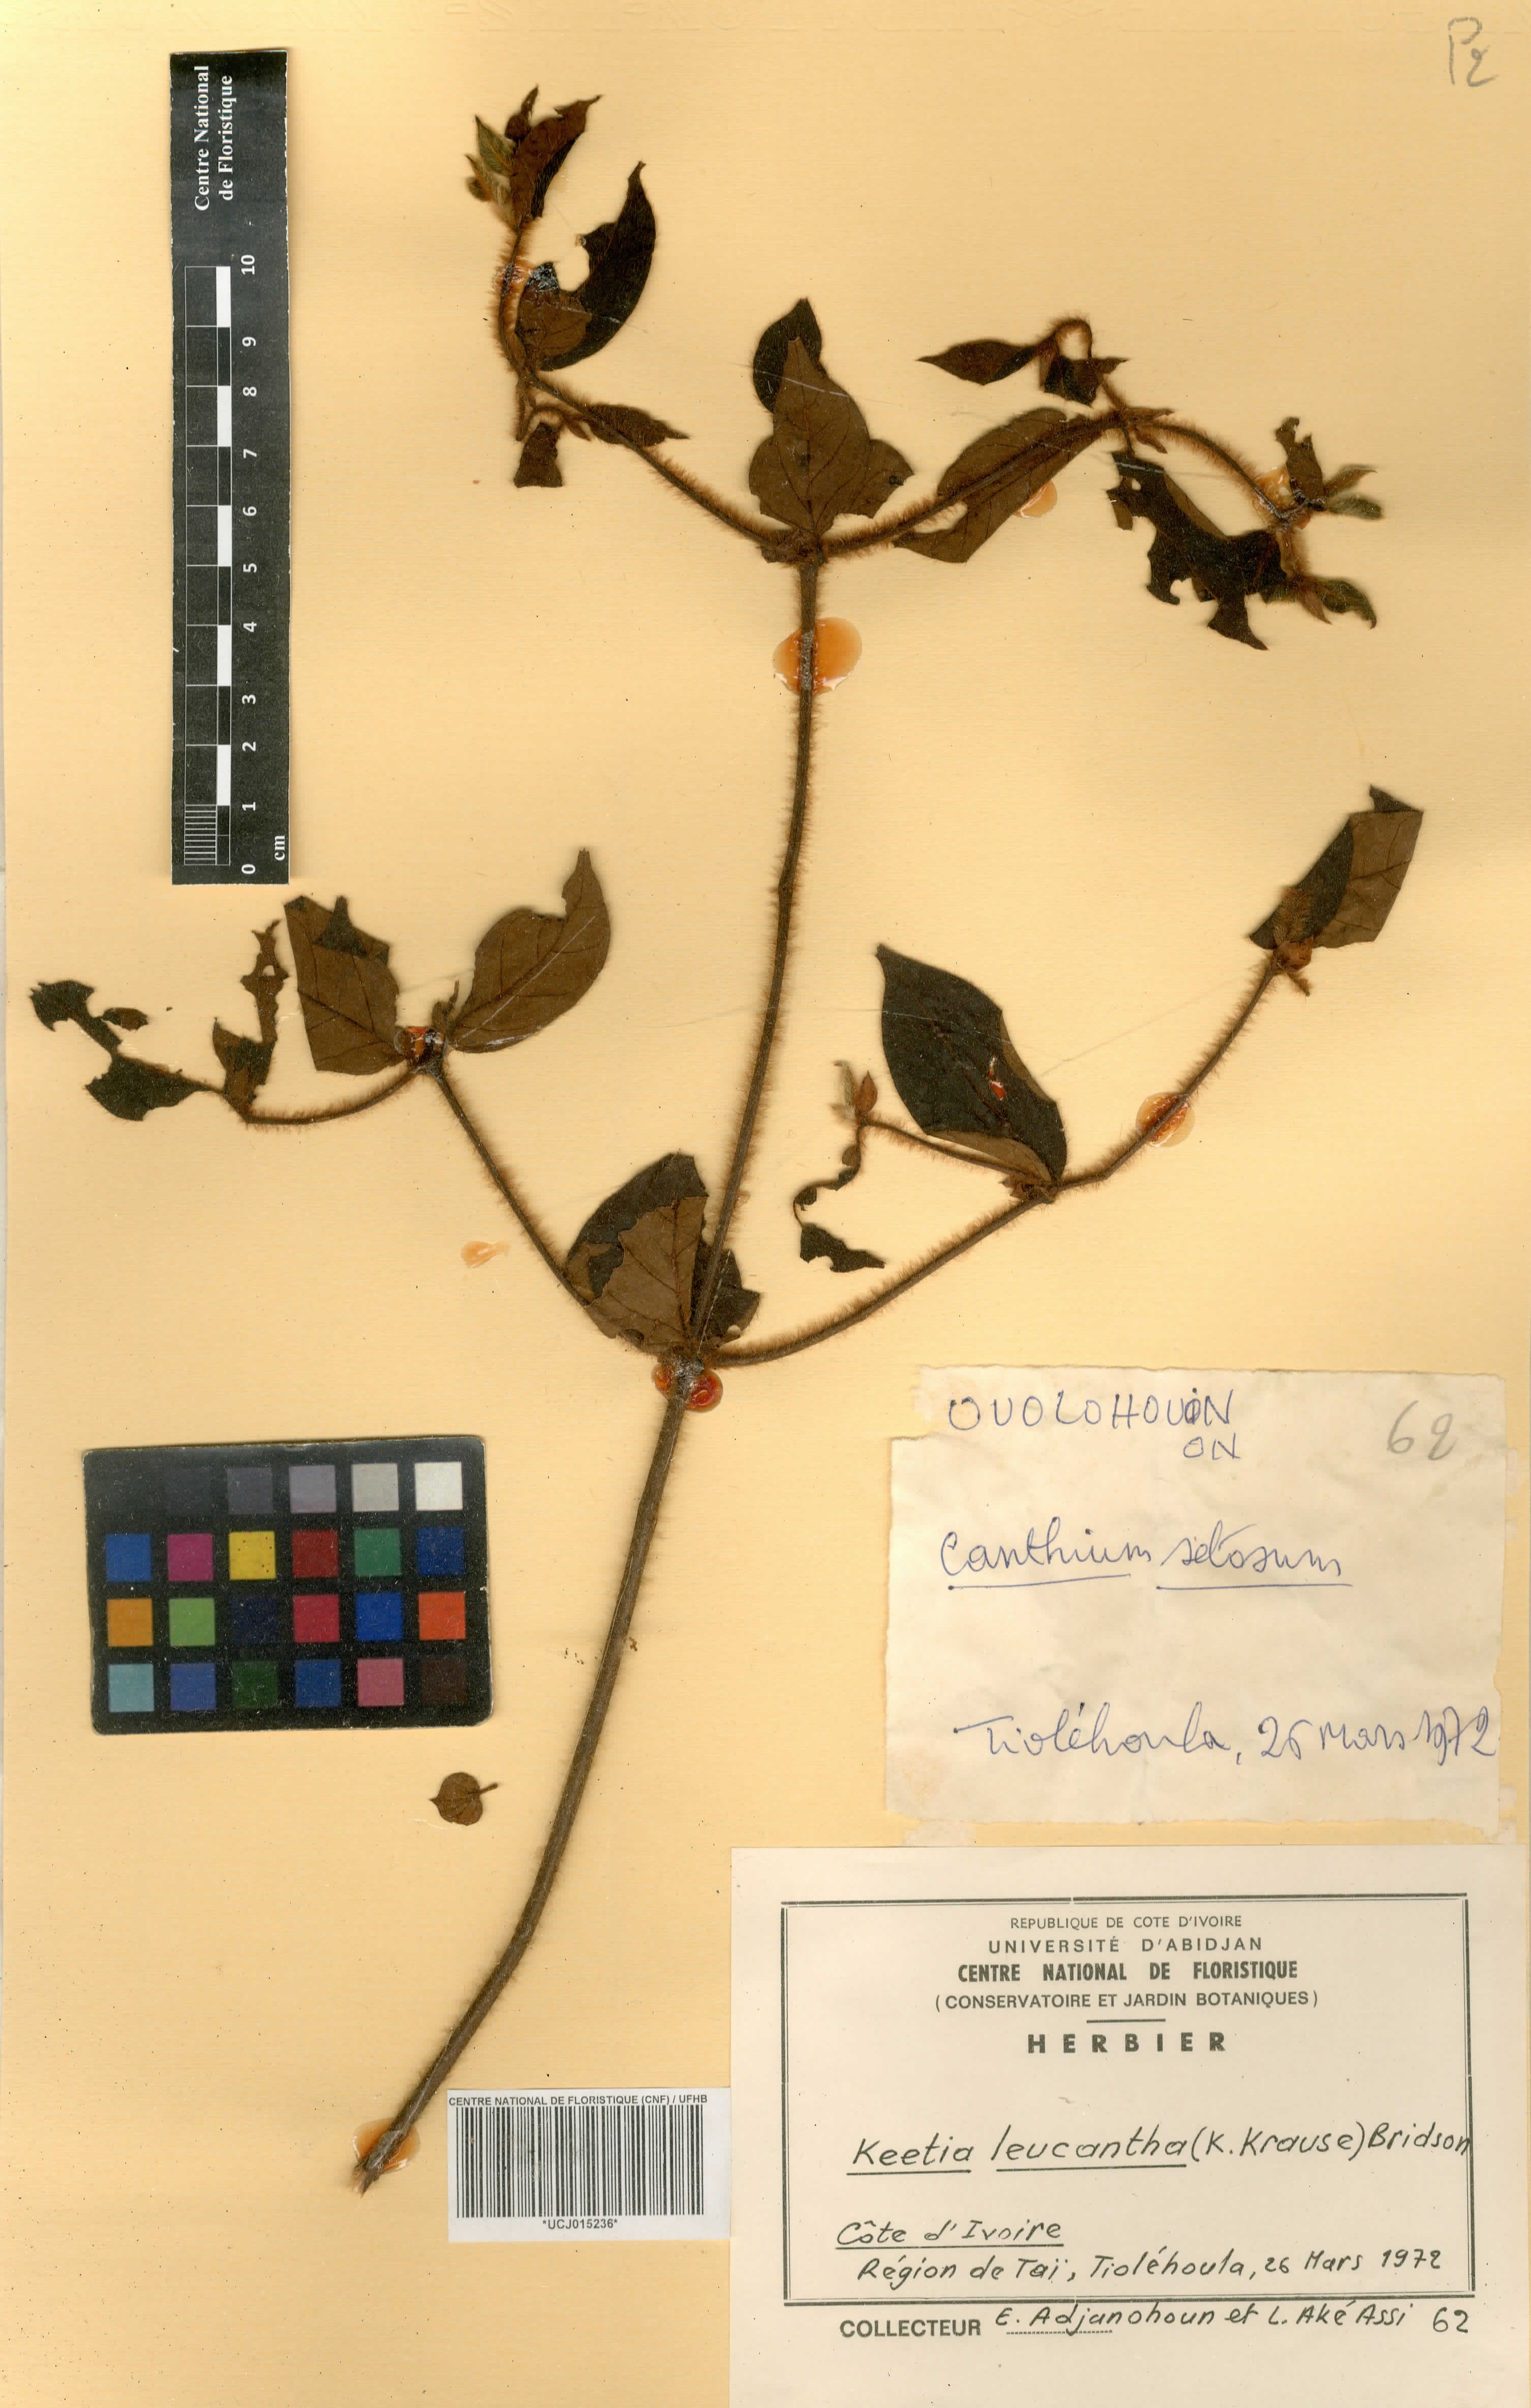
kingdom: Plantae
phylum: Tracheophyta
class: Magnoliopsida
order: Gentianales
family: Rubiaceae
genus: Keetia
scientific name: Keetia leucantha
